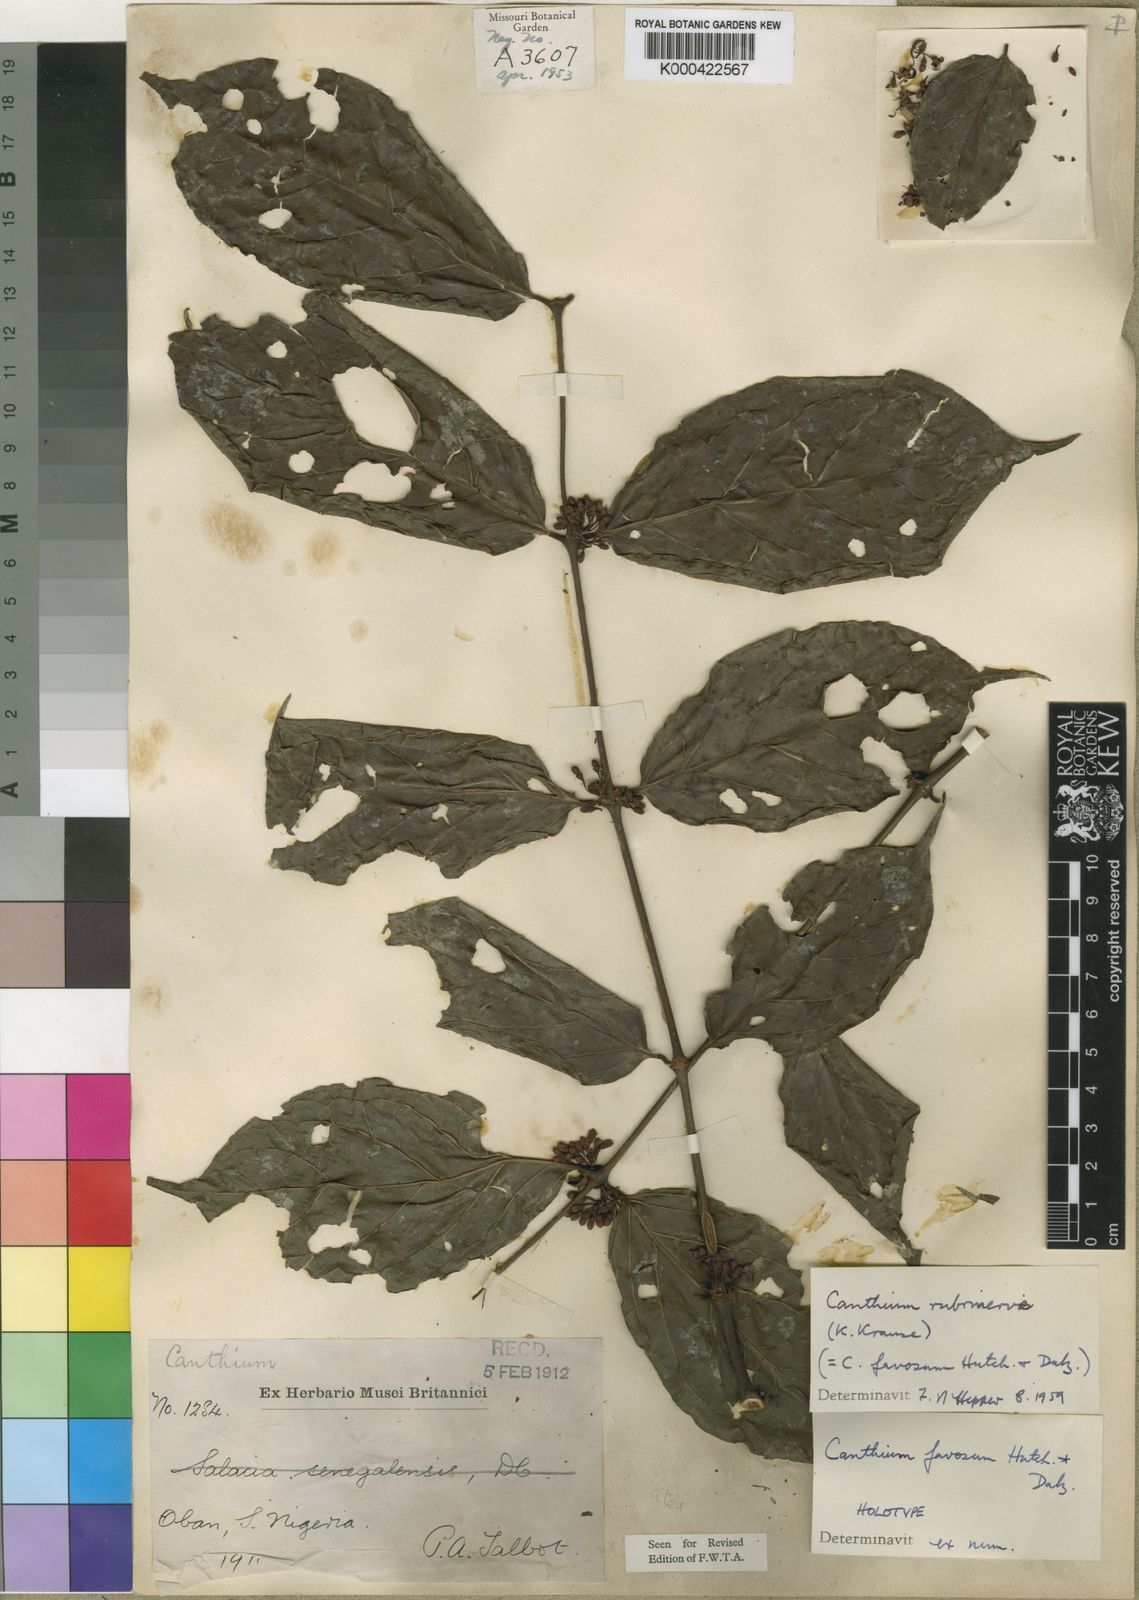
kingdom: Plantae
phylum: Tracheophyta
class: Magnoliopsida
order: Gentianales
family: Rubiaceae
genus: Keetia
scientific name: Keetia hispida
